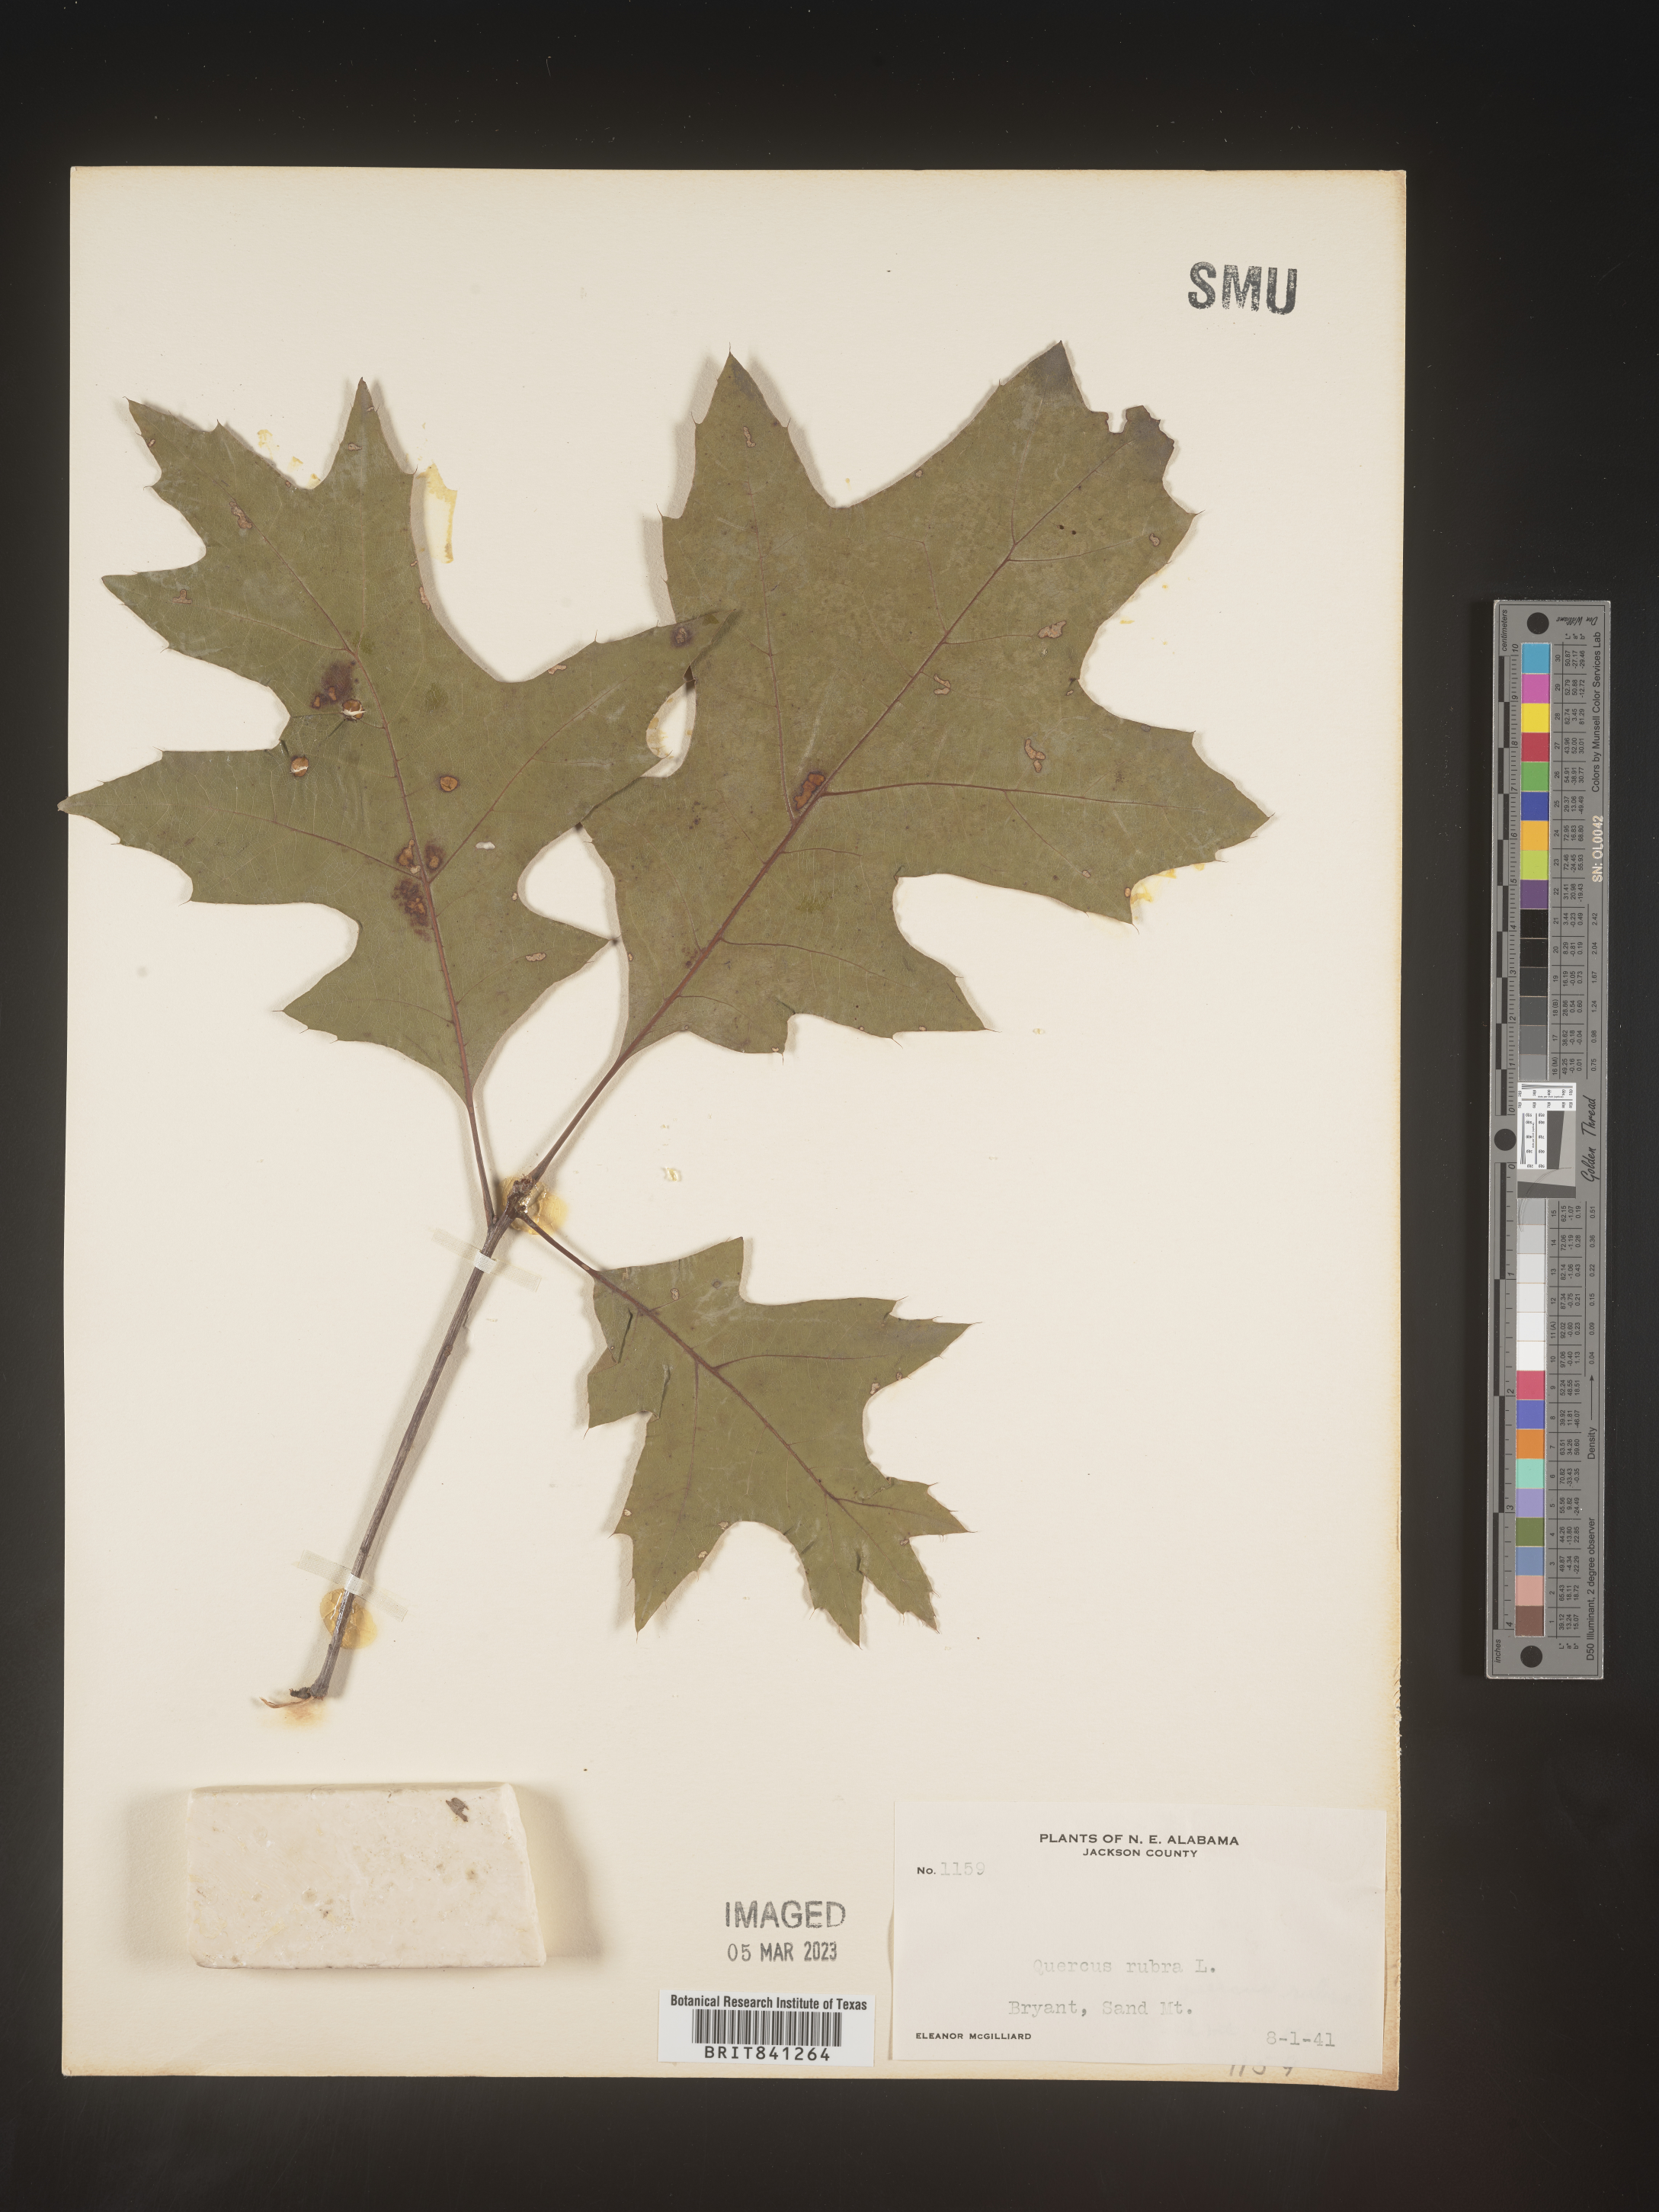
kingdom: Plantae
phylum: Tracheophyta
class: Magnoliopsida
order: Fagales
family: Fagaceae
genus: Quercus
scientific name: Quercus rubra
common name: Red oak
